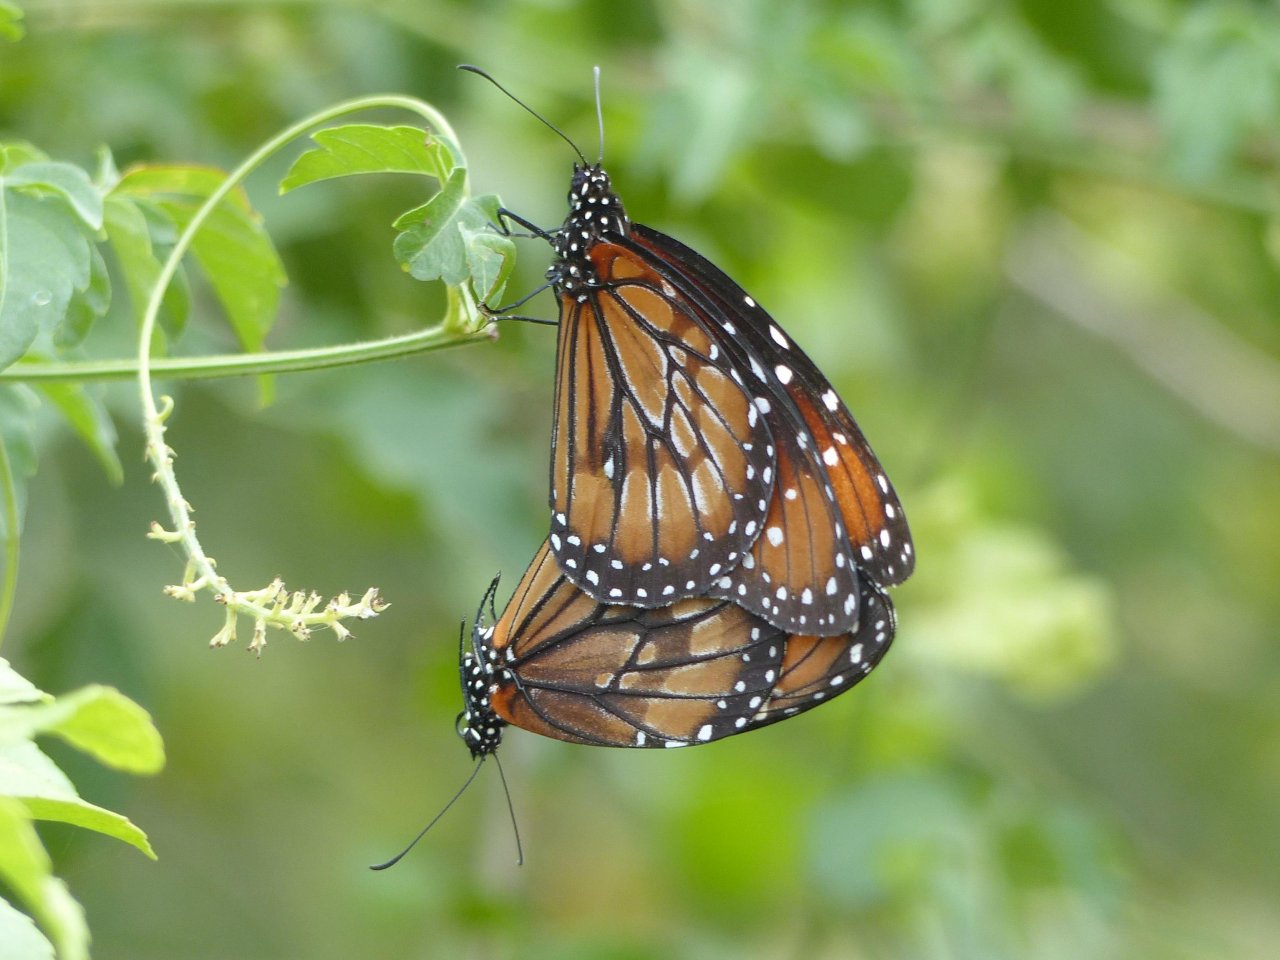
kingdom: Animalia
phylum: Arthropoda
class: Insecta
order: Lepidoptera
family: Nymphalidae
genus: Danaus
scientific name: Danaus eresimus
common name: Soldier
